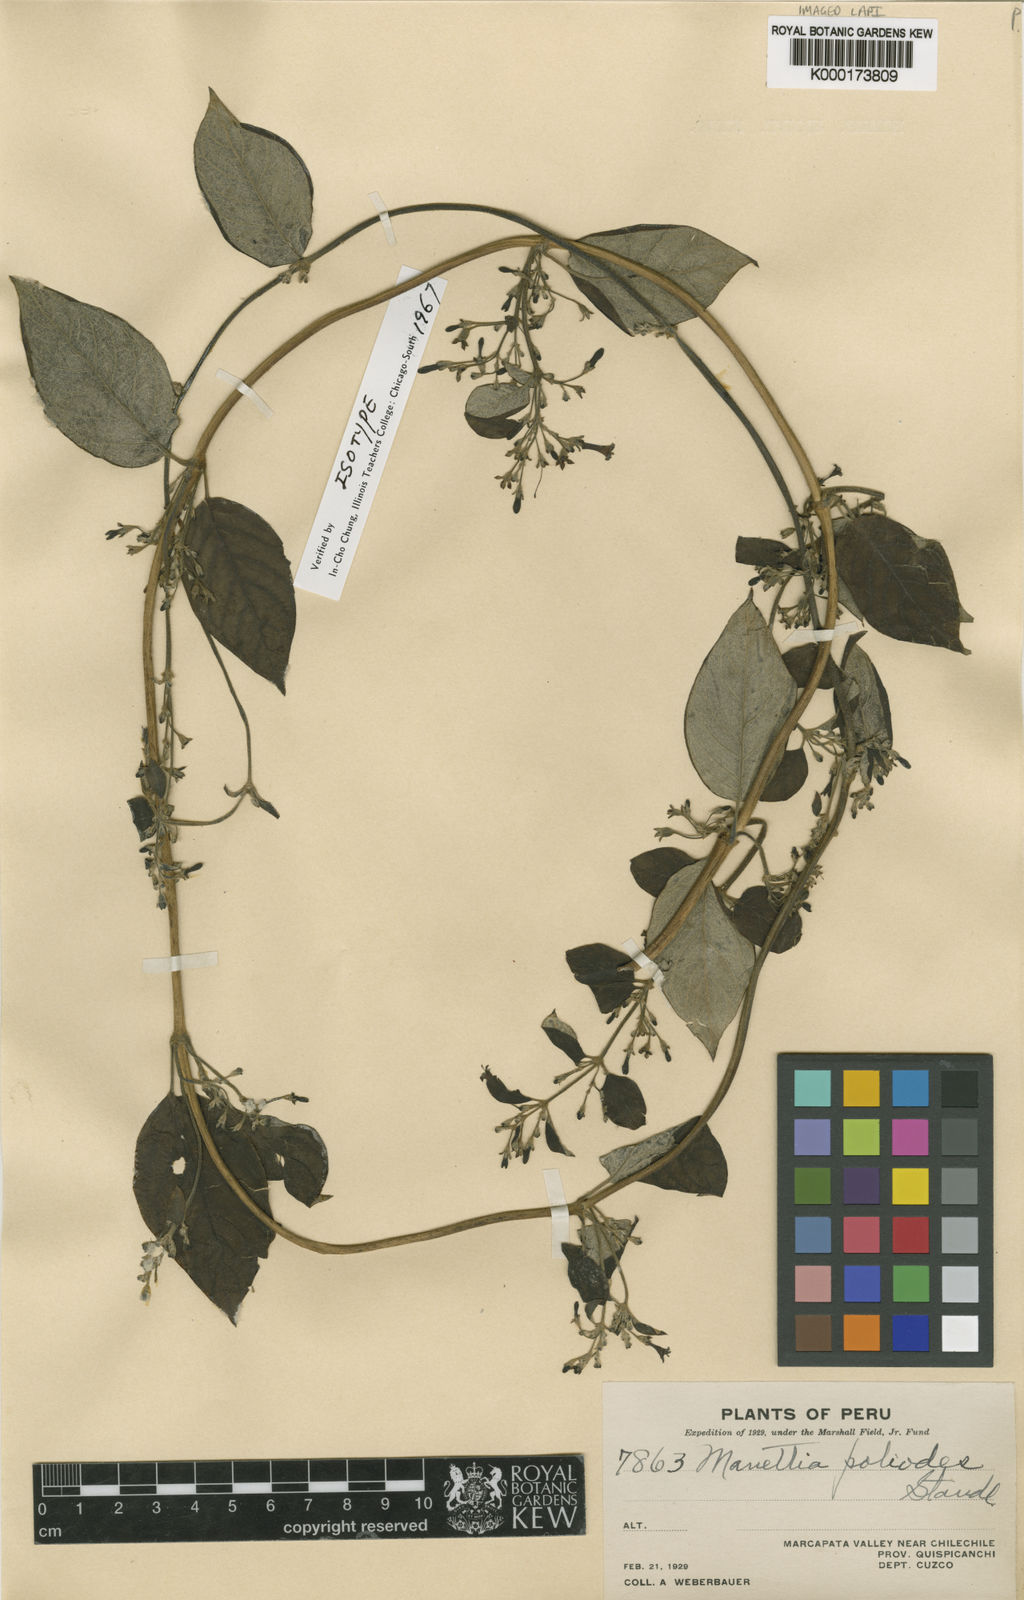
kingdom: Plantae
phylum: Tracheophyta
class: Magnoliopsida
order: Gentianales
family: Rubiaceae
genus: Manettia
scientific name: Manettia poliodes
